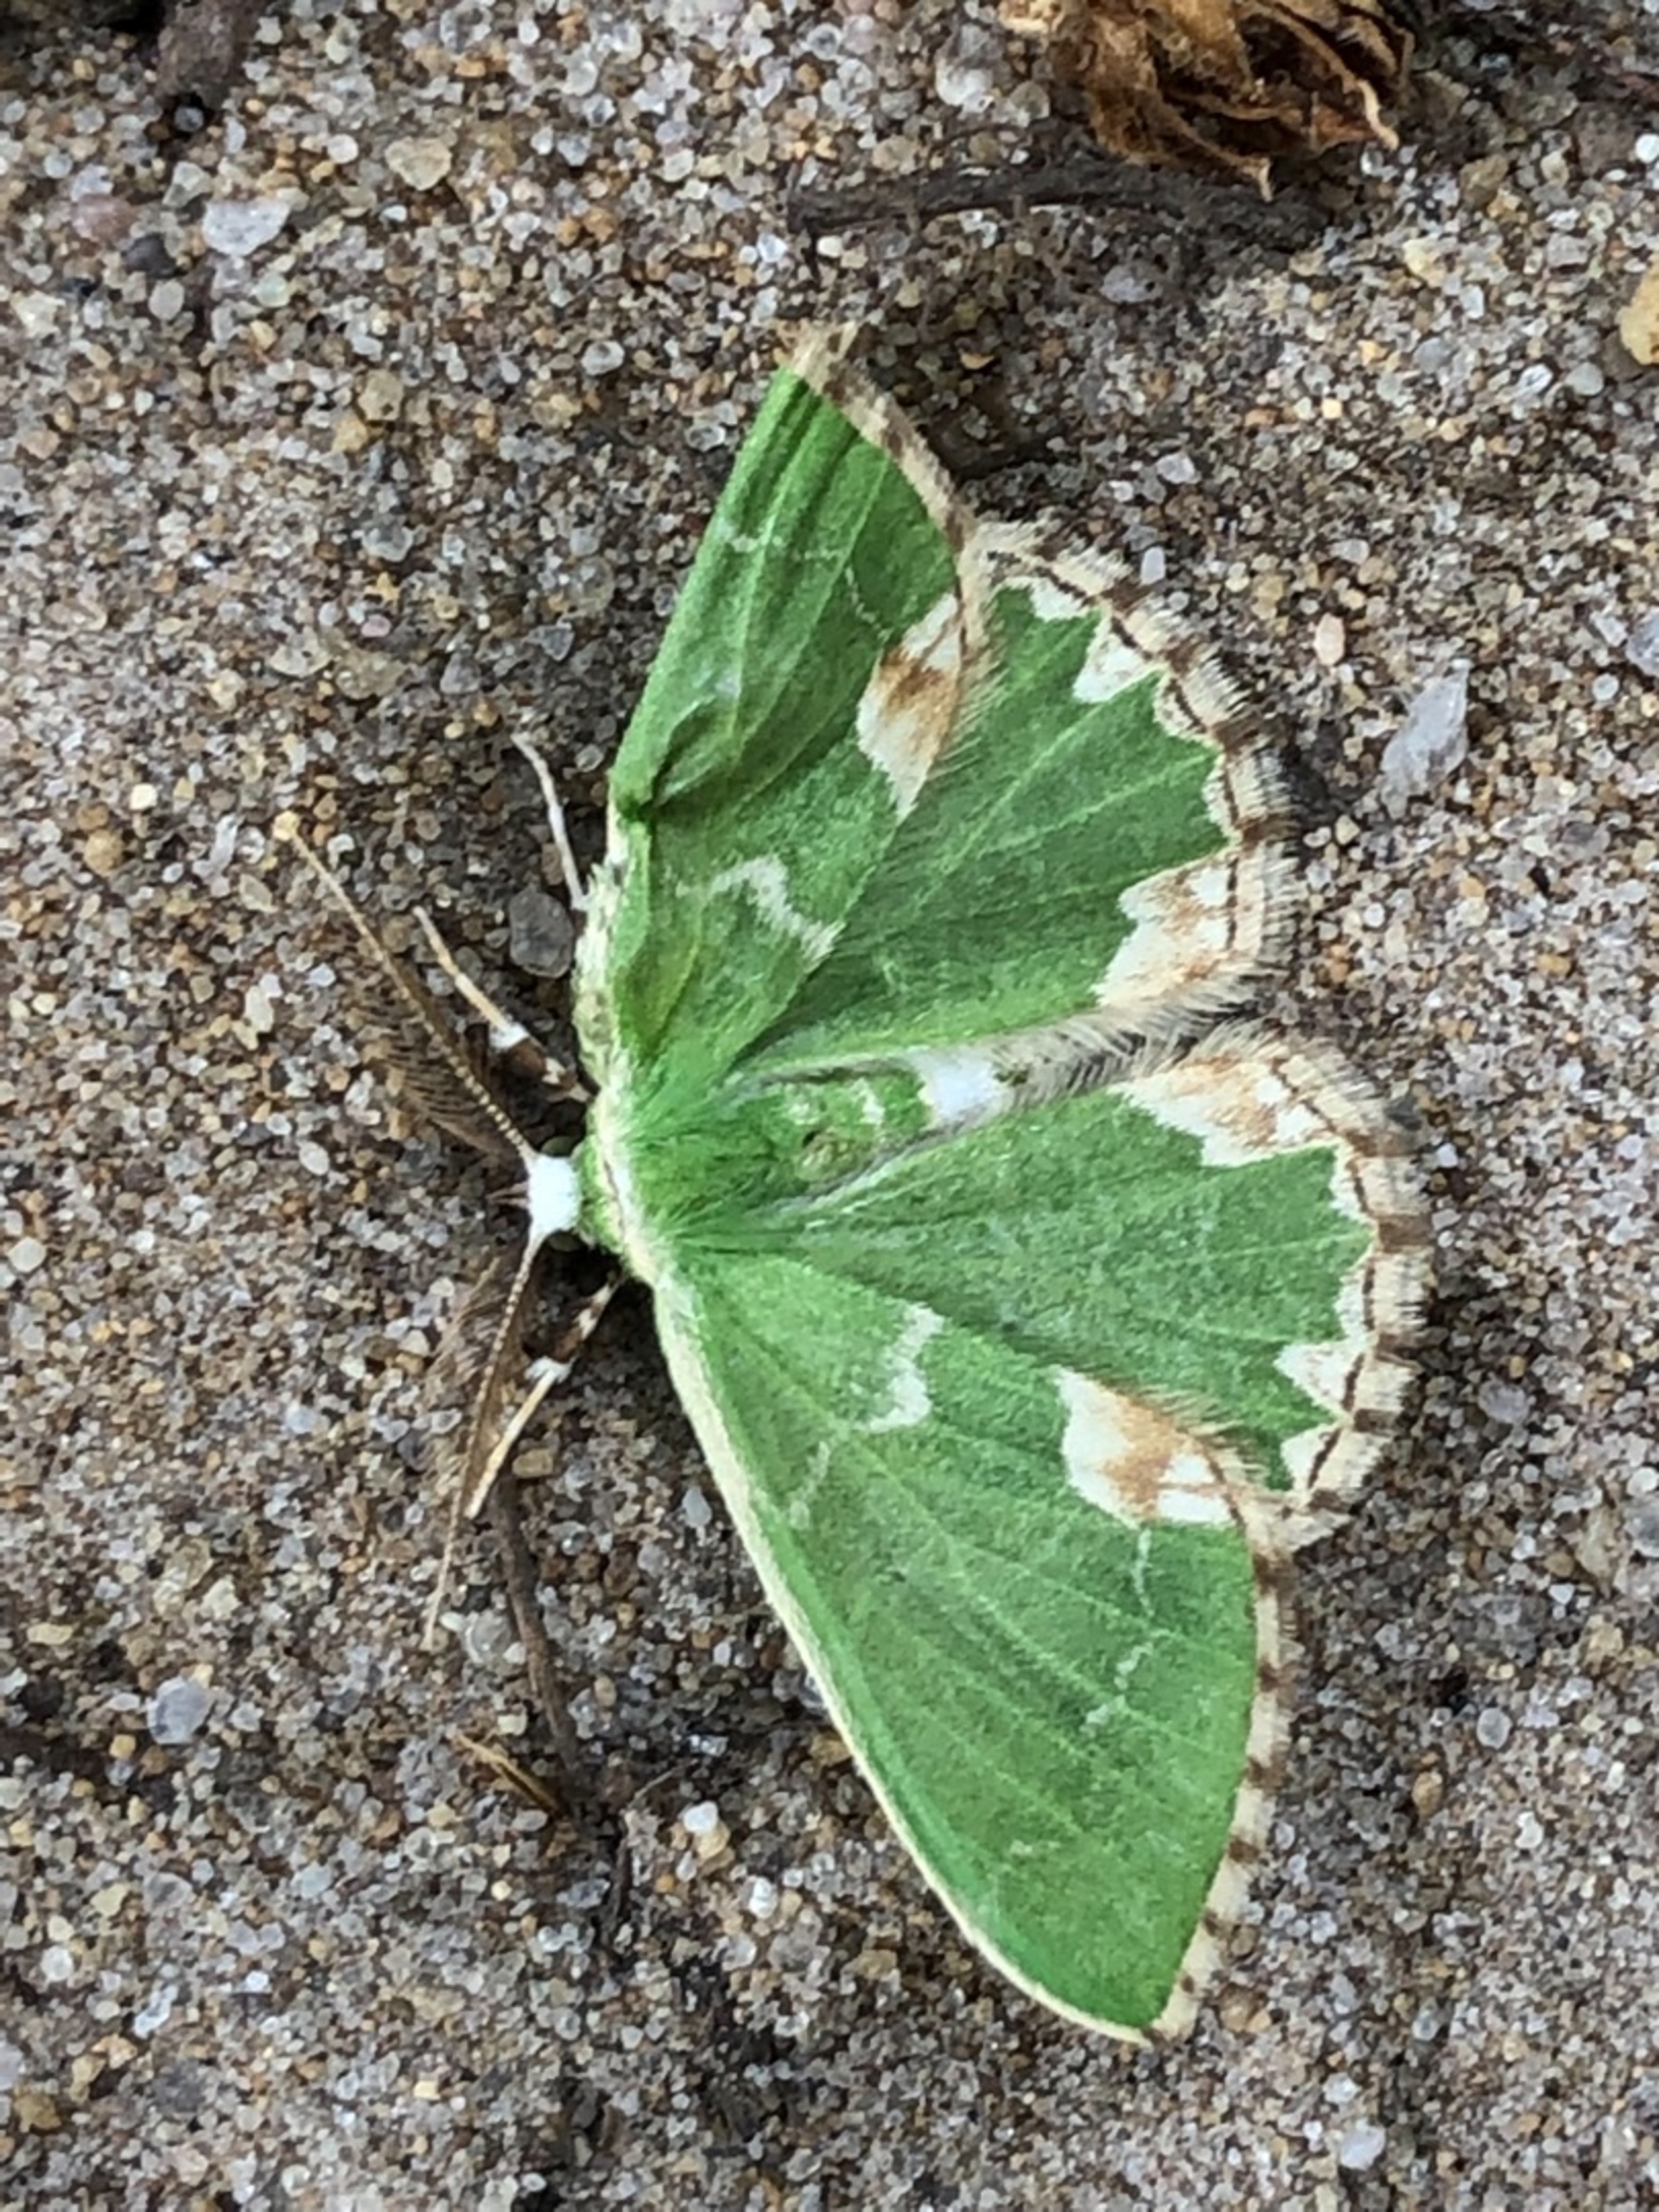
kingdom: Animalia
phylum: Arthropoda
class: Insecta
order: Lepidoptera
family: Geometridae
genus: Comibaena
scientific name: Comibaena bajularia
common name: Måneplettet måler
